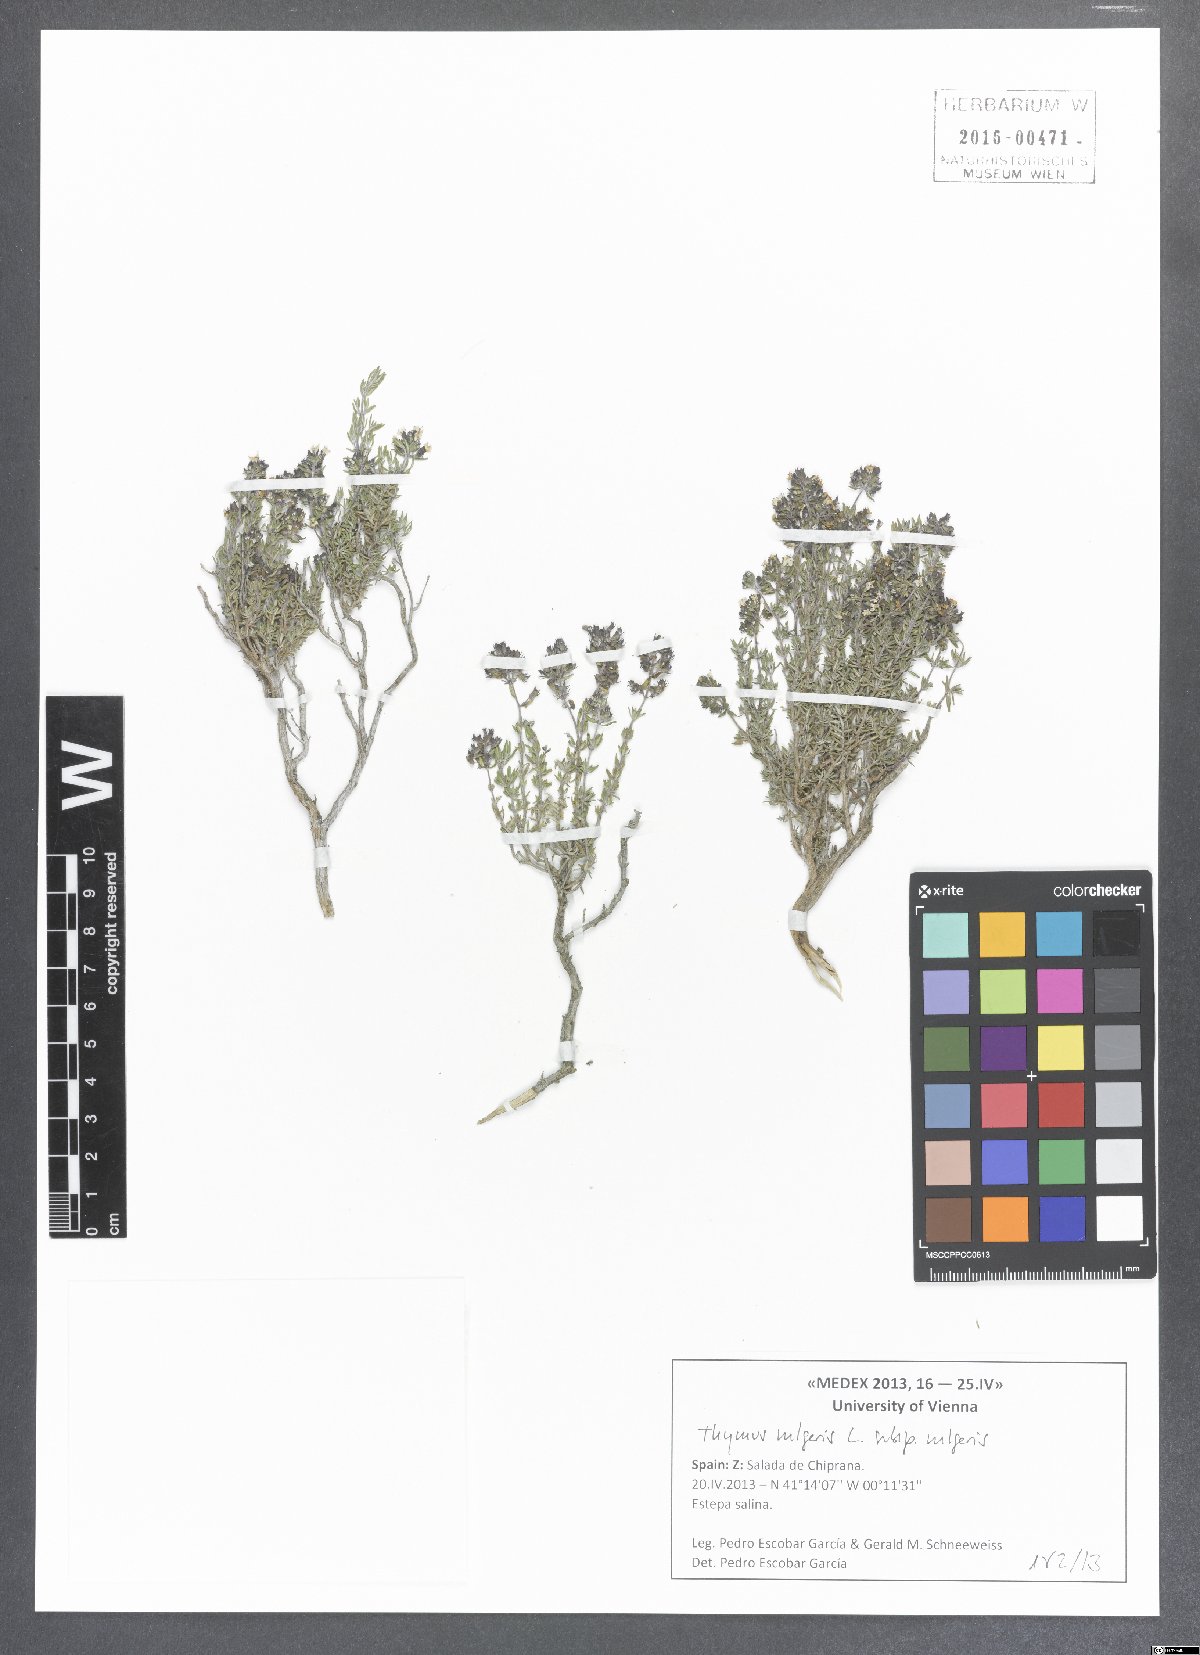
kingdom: Plantae
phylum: Tracheophyta
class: Magnoliopsida
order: Lamiales
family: Lamiaceae
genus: Thymus
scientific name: Thymus vulgaris
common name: Garden thyme
